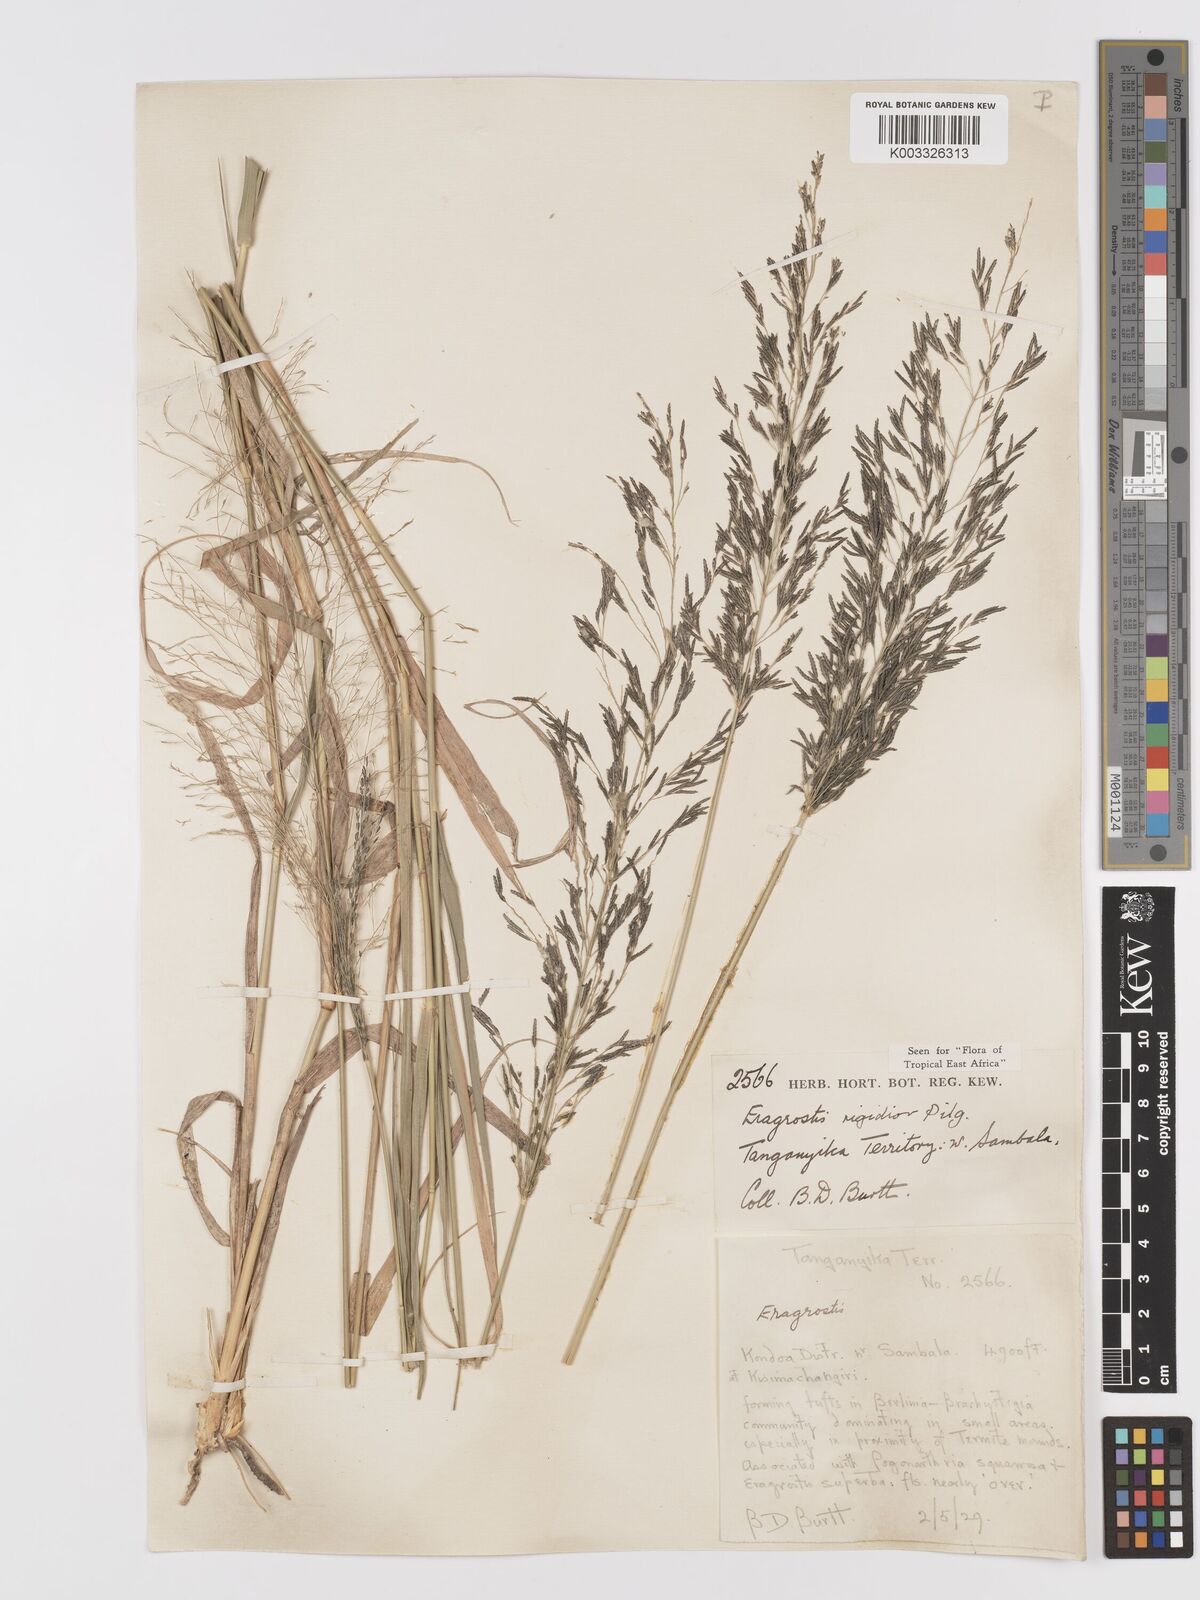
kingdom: Plantae
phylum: Tracheophyta
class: Liliopsida
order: Poales
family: Poaceae
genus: Eragrostis
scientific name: Eragrostis cylindriflora
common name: Cylinderflower lovegrass
